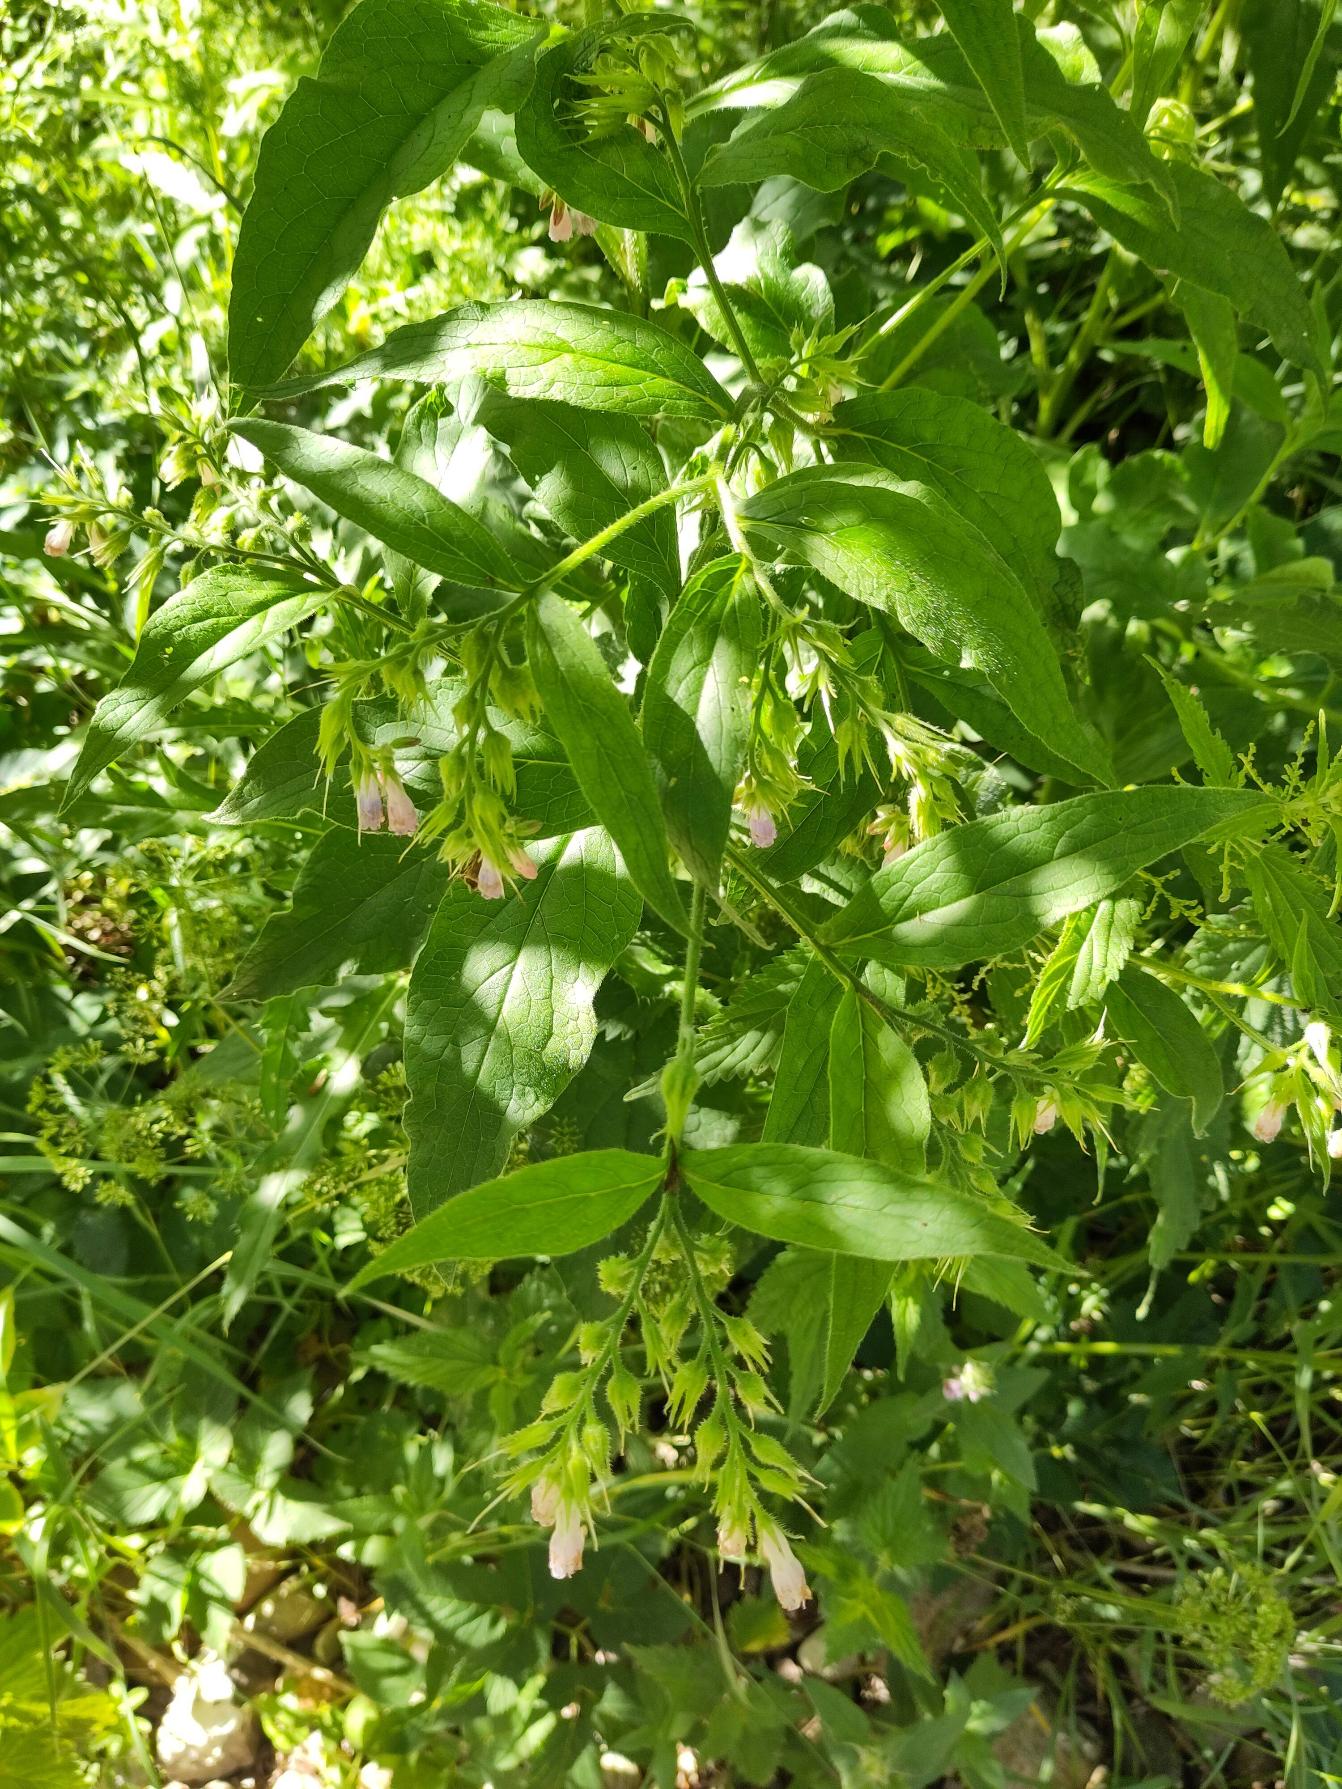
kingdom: Plantae
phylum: Tracheophyta
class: Magnoliopsida
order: Boraginales
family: Boraginaceae
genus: Symphytum
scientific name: Symphytum uplandicum
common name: Foder-kulsukker
